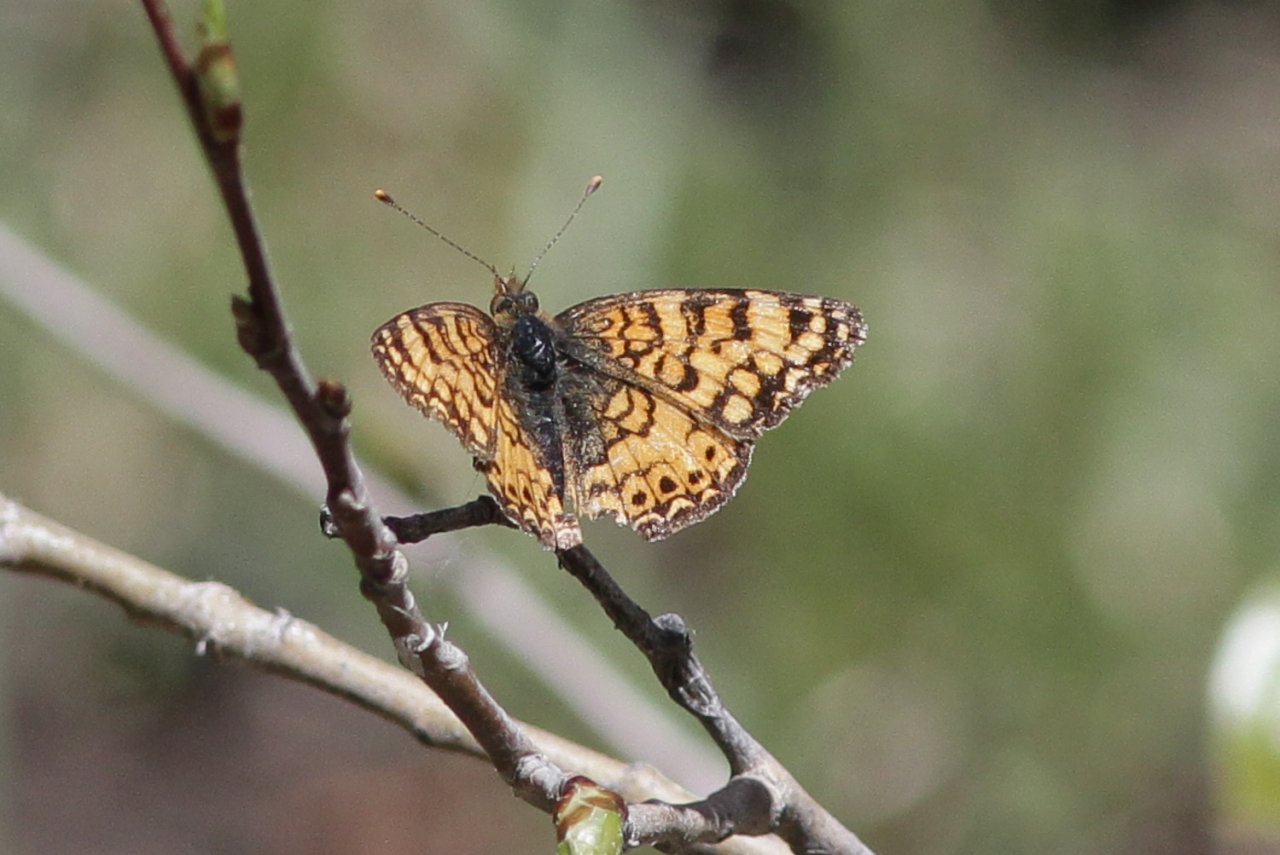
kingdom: Animalia
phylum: Arthropoda
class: Insecta
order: Lepidoptera
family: Nymphalidae
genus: Eresia
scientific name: Eresia aveyrona
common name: Mylitta Crescent
